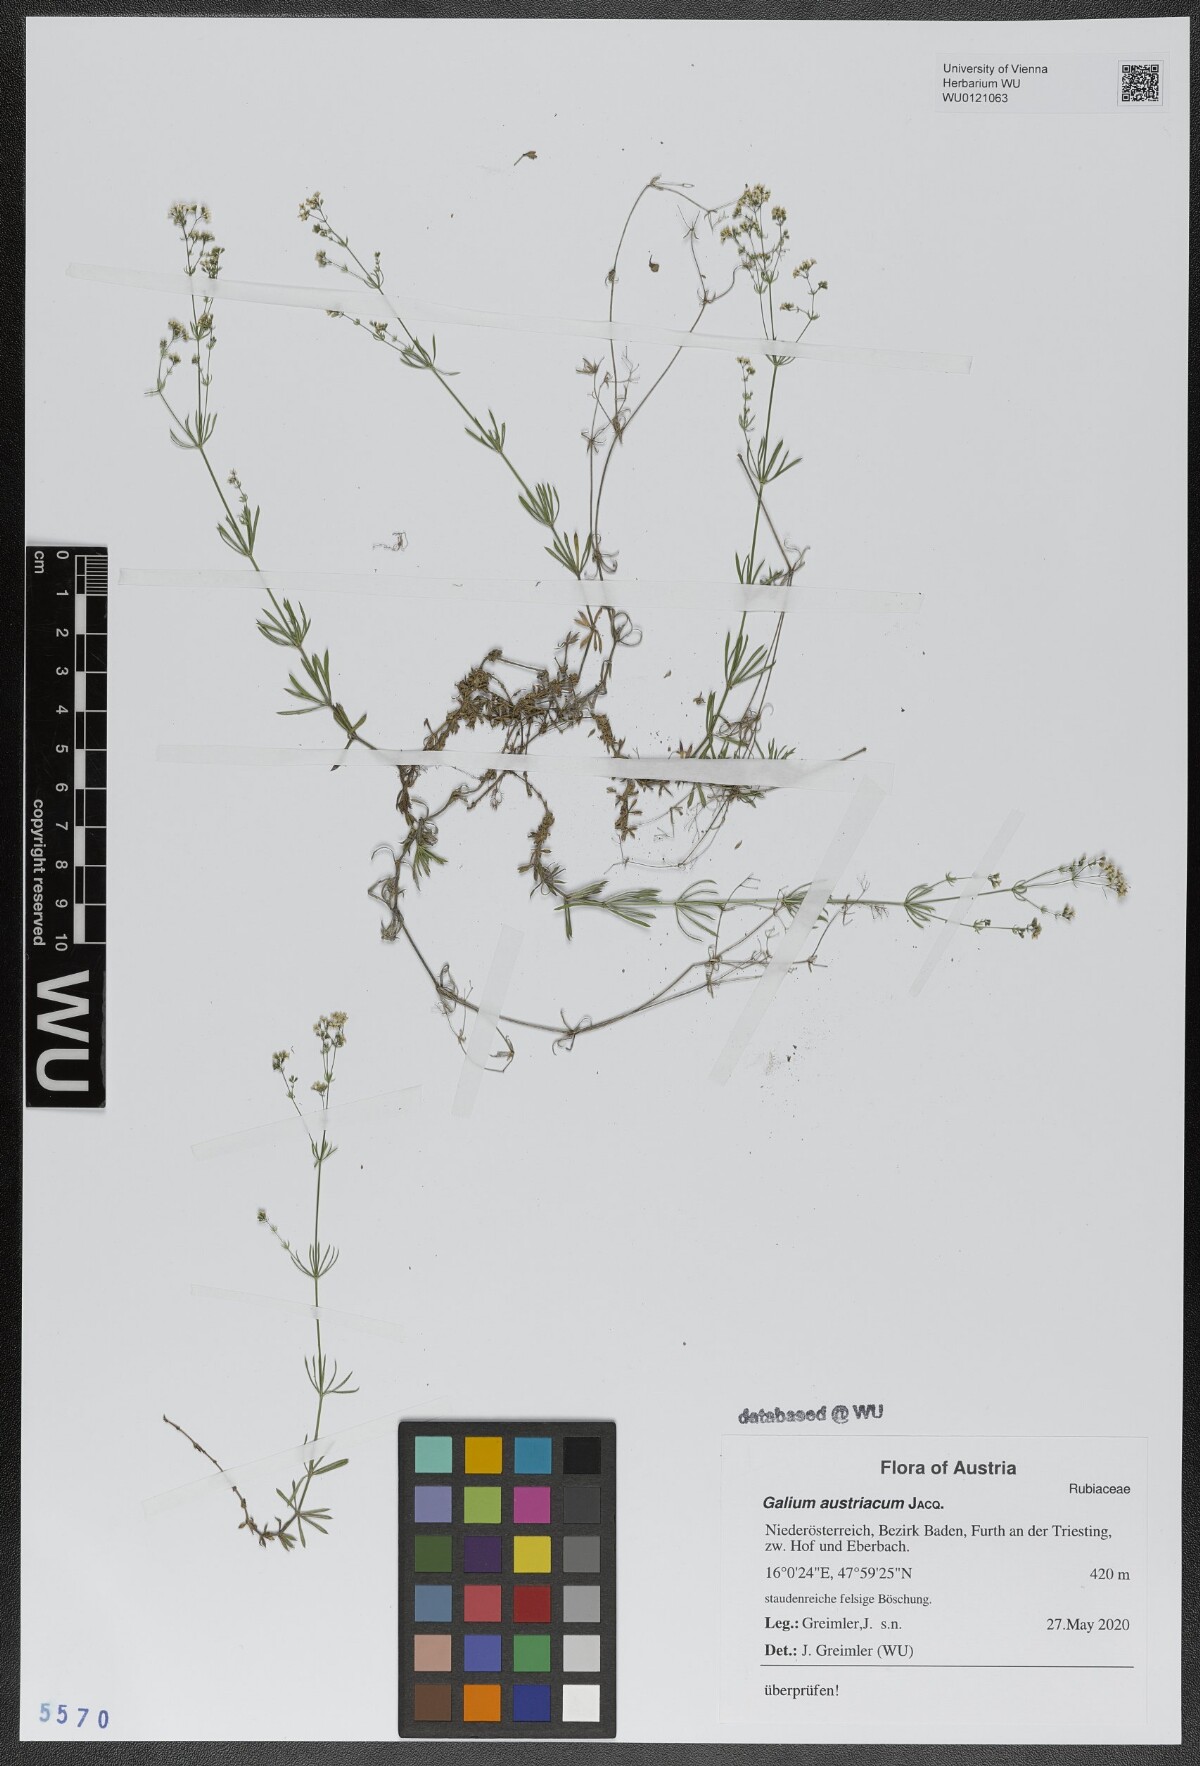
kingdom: Plantae
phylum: Tracheophyta
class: Magnoliopsida
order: Gentianales
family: Rubiaceae
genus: Galium
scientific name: Galium austriacum
